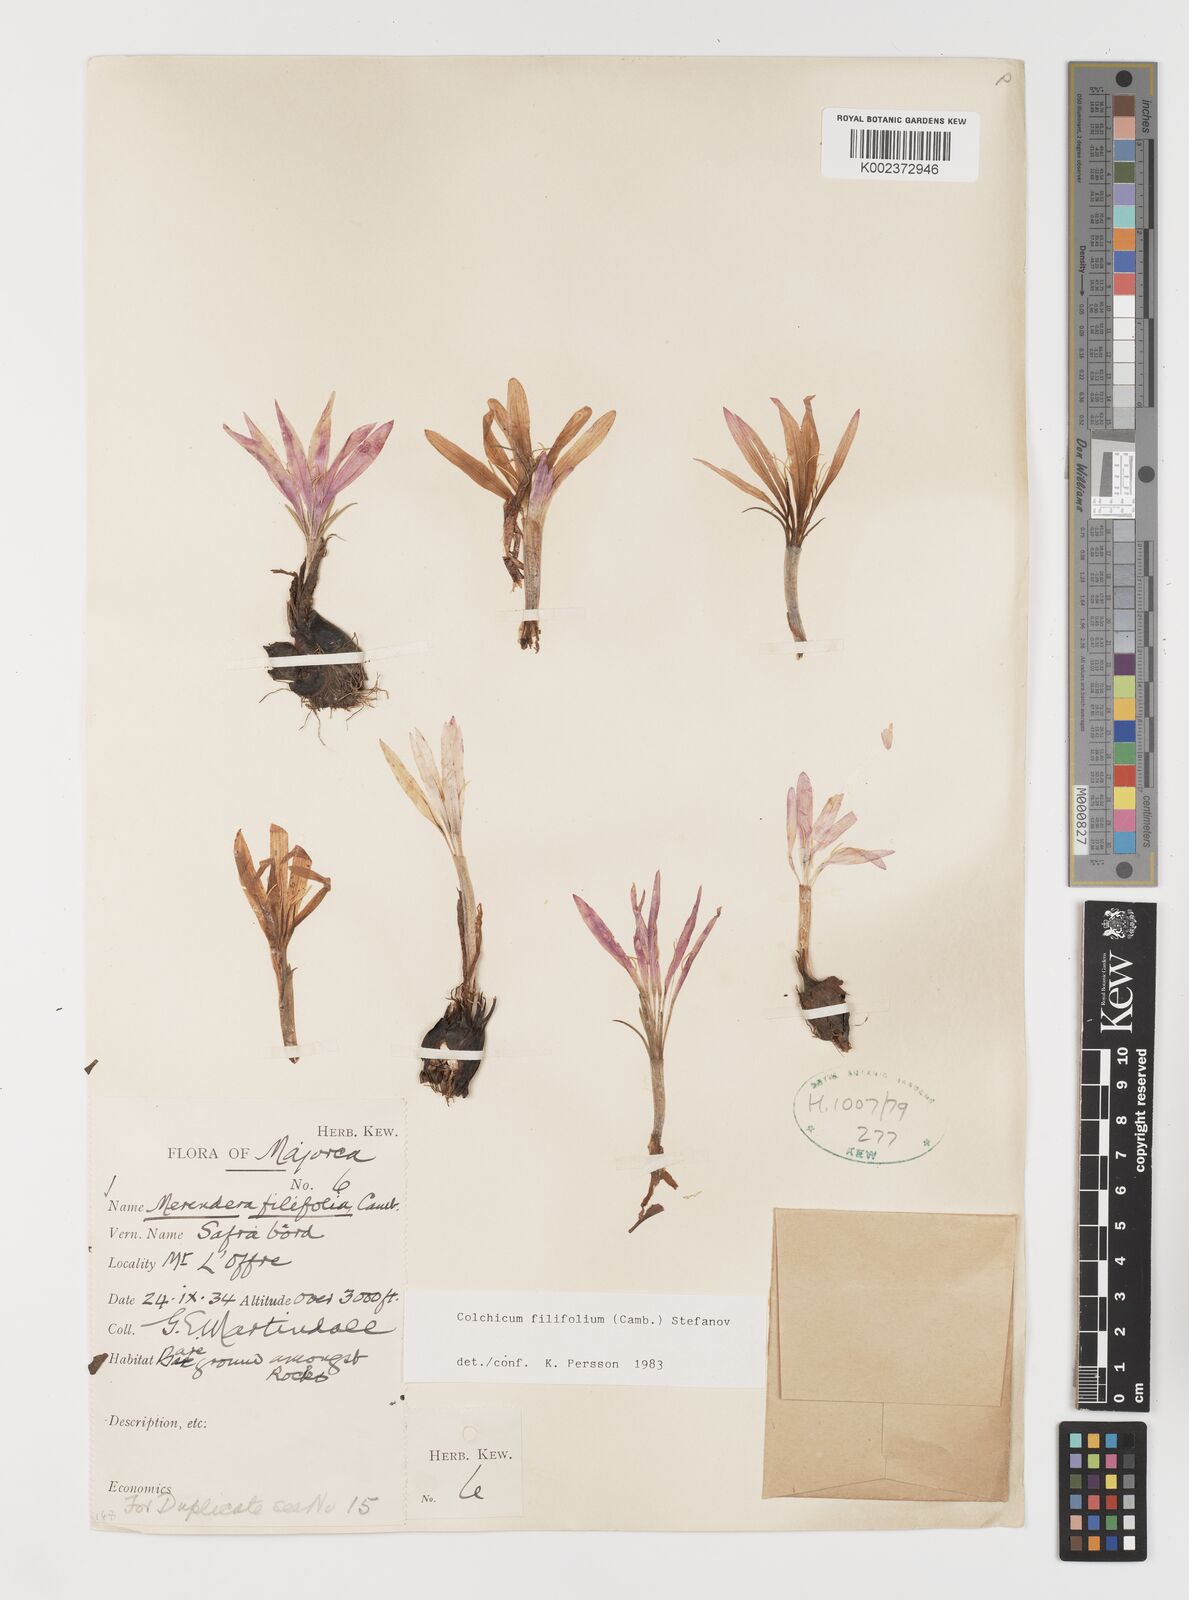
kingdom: Plantae
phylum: Tracheophyta
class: Liliopsida
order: Liliales
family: Colchicaceae
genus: Colchicum
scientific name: Colchicum filifolium
